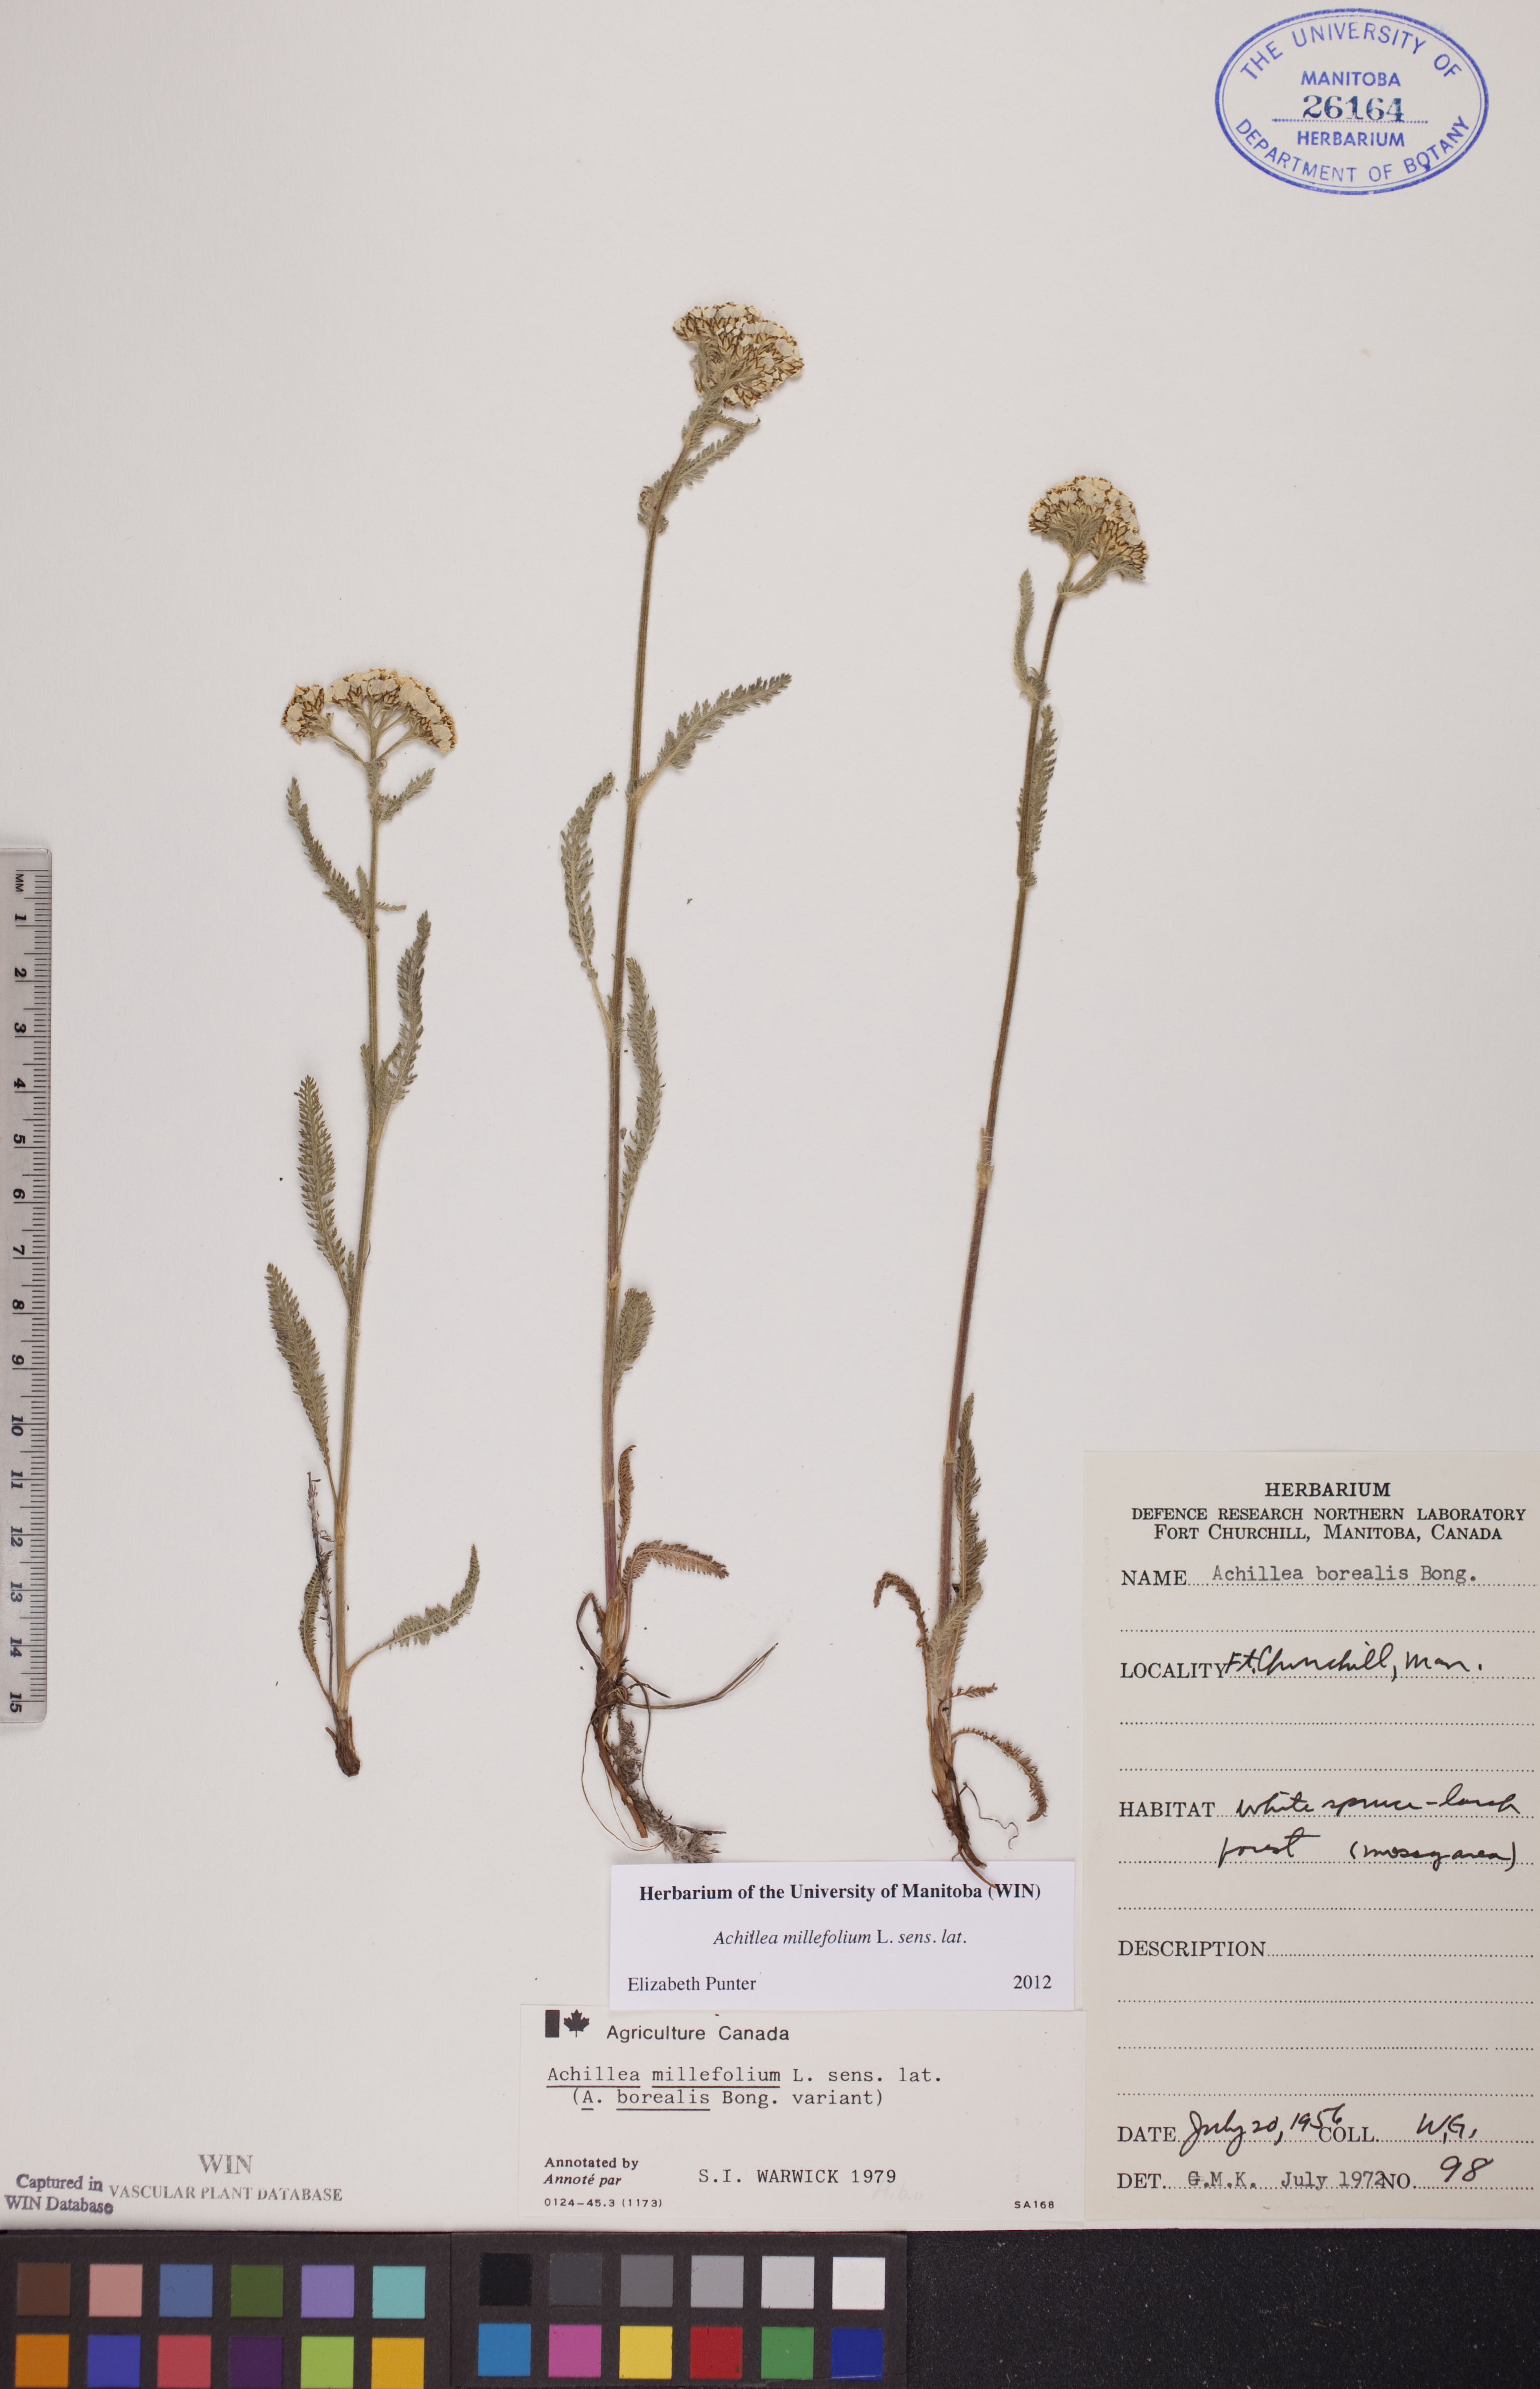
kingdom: Plantae
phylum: Tracheophyta
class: Magnoliopsida
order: Asterales
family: Asteraceae
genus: Achillea
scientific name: Achillea millefolium
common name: Yarrow
